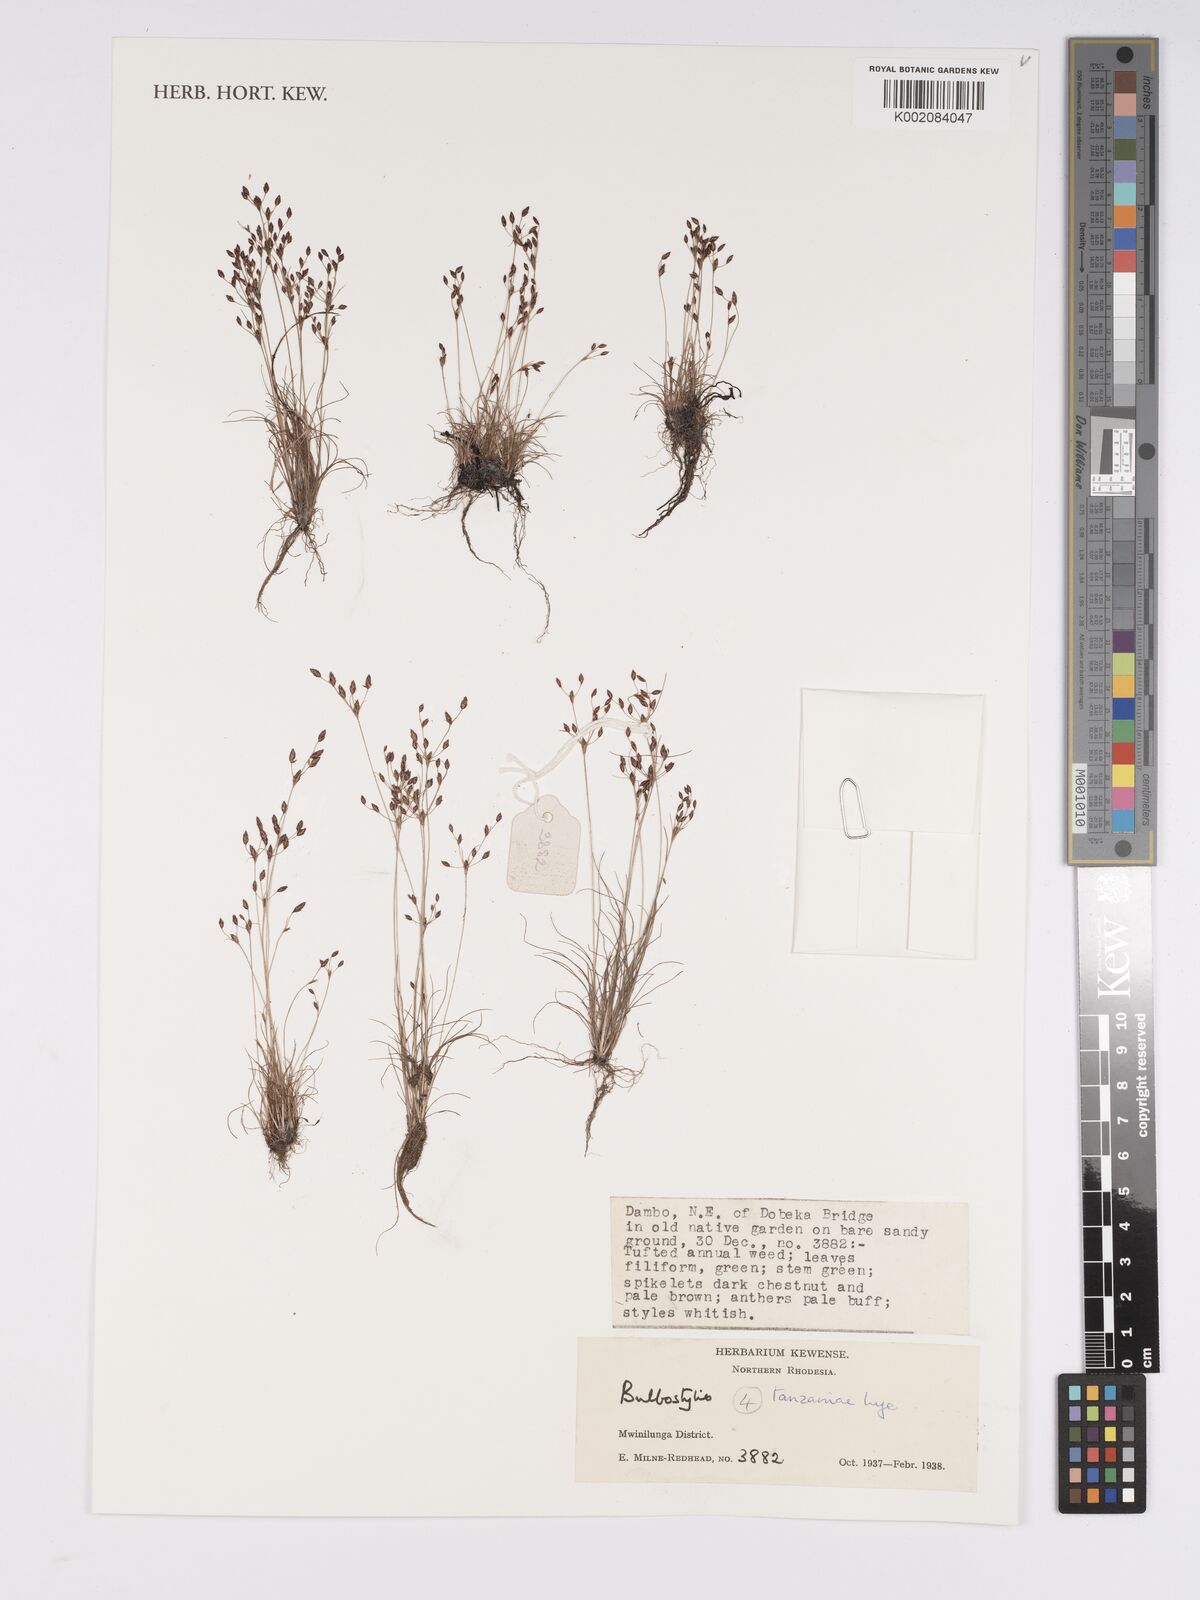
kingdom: Plantae
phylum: Tracheophyta
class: Liliopsida
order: Poales
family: Cyperaceae
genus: Bulbostylis
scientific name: Bulbostylis tanzaniae
